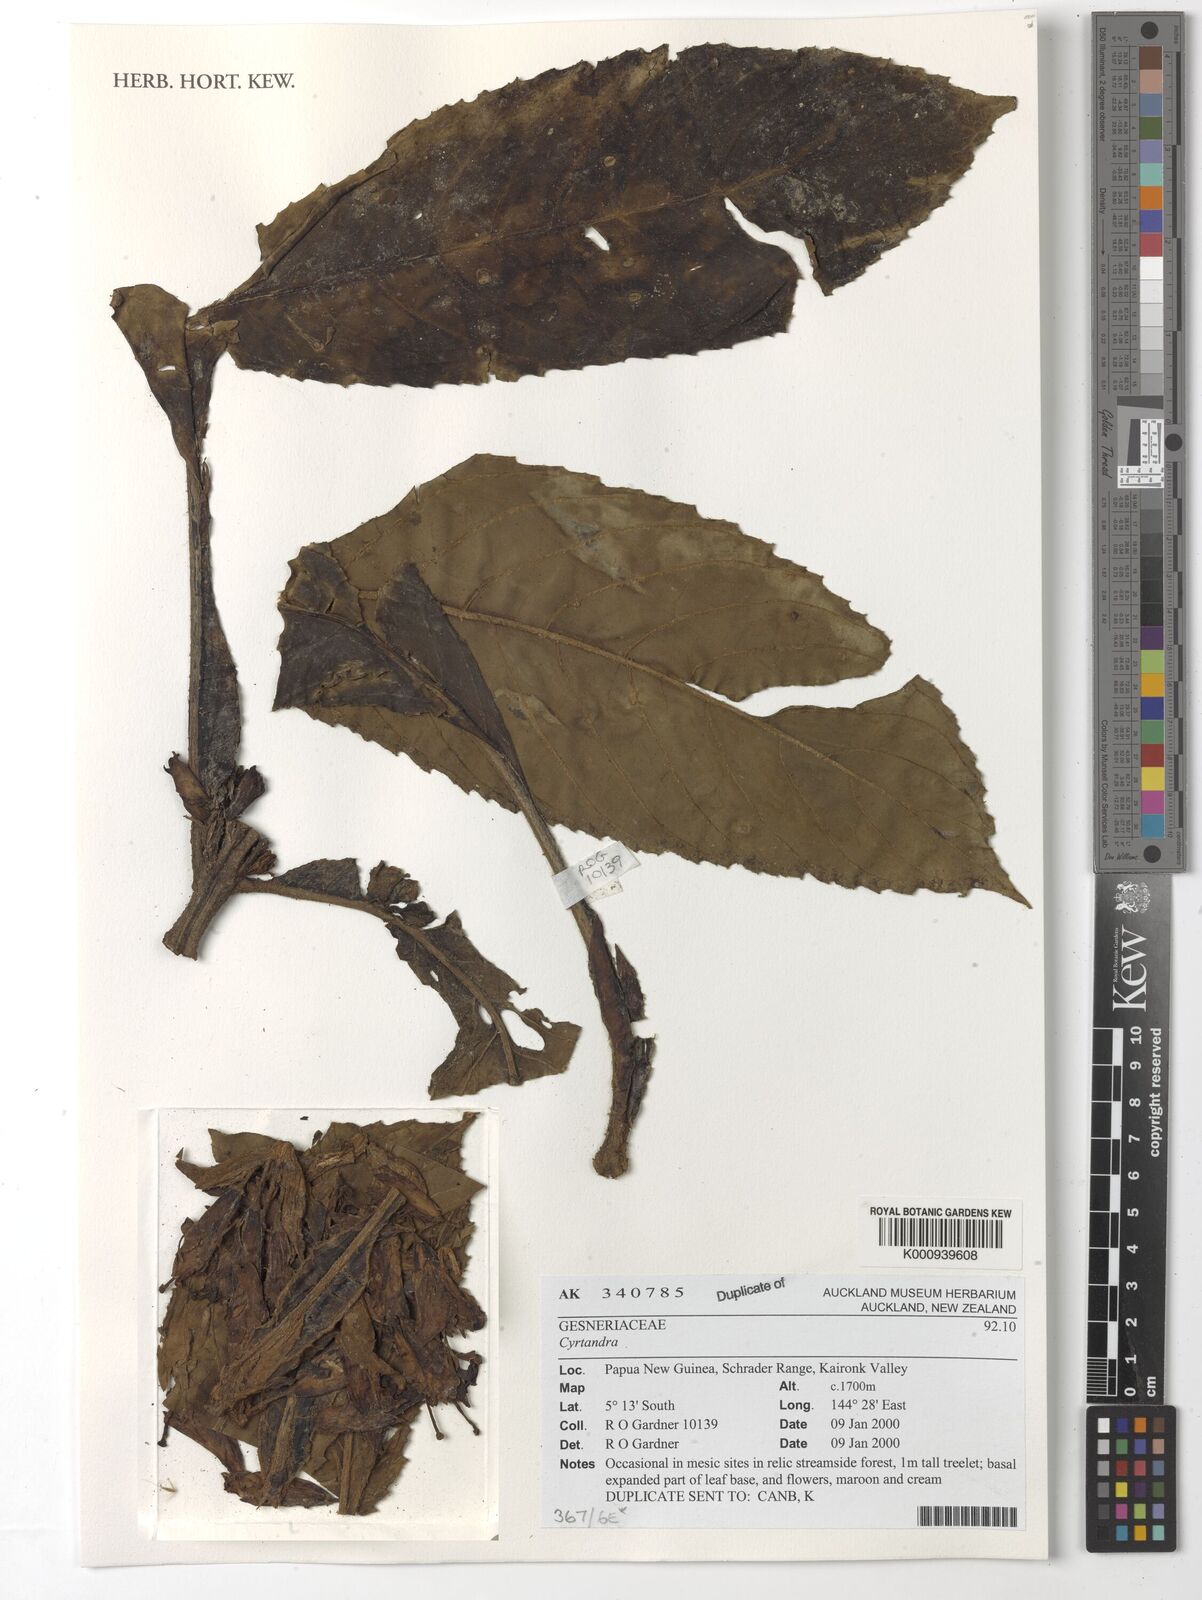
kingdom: Plantae
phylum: Tracheophyta
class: Magnoliopsida
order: Lamiales
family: Gesneriaceae
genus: Cyrtandra
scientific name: Cyrtandra
